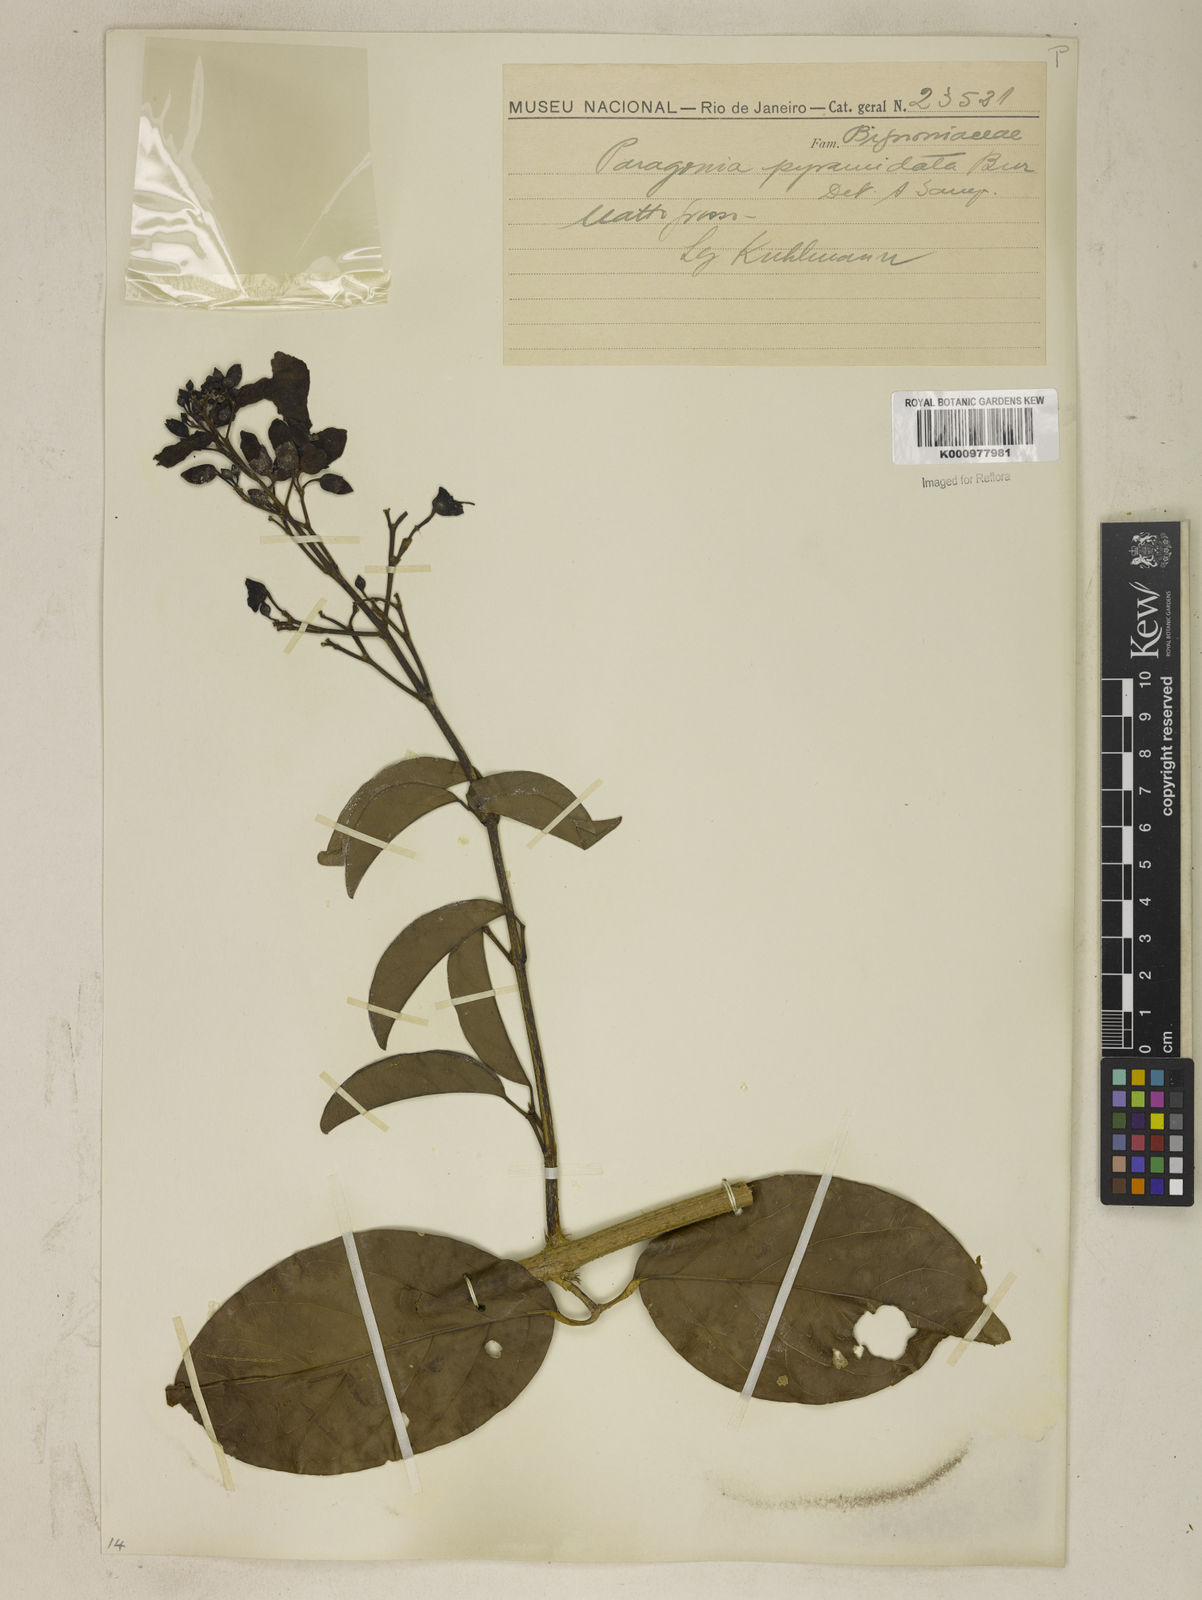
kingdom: Plantae
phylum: Tracheophyta
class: Magnoliopsida
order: Lamiales
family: Bignoniaceae
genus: Tanaecium
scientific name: Tanaecium pyramidatum
